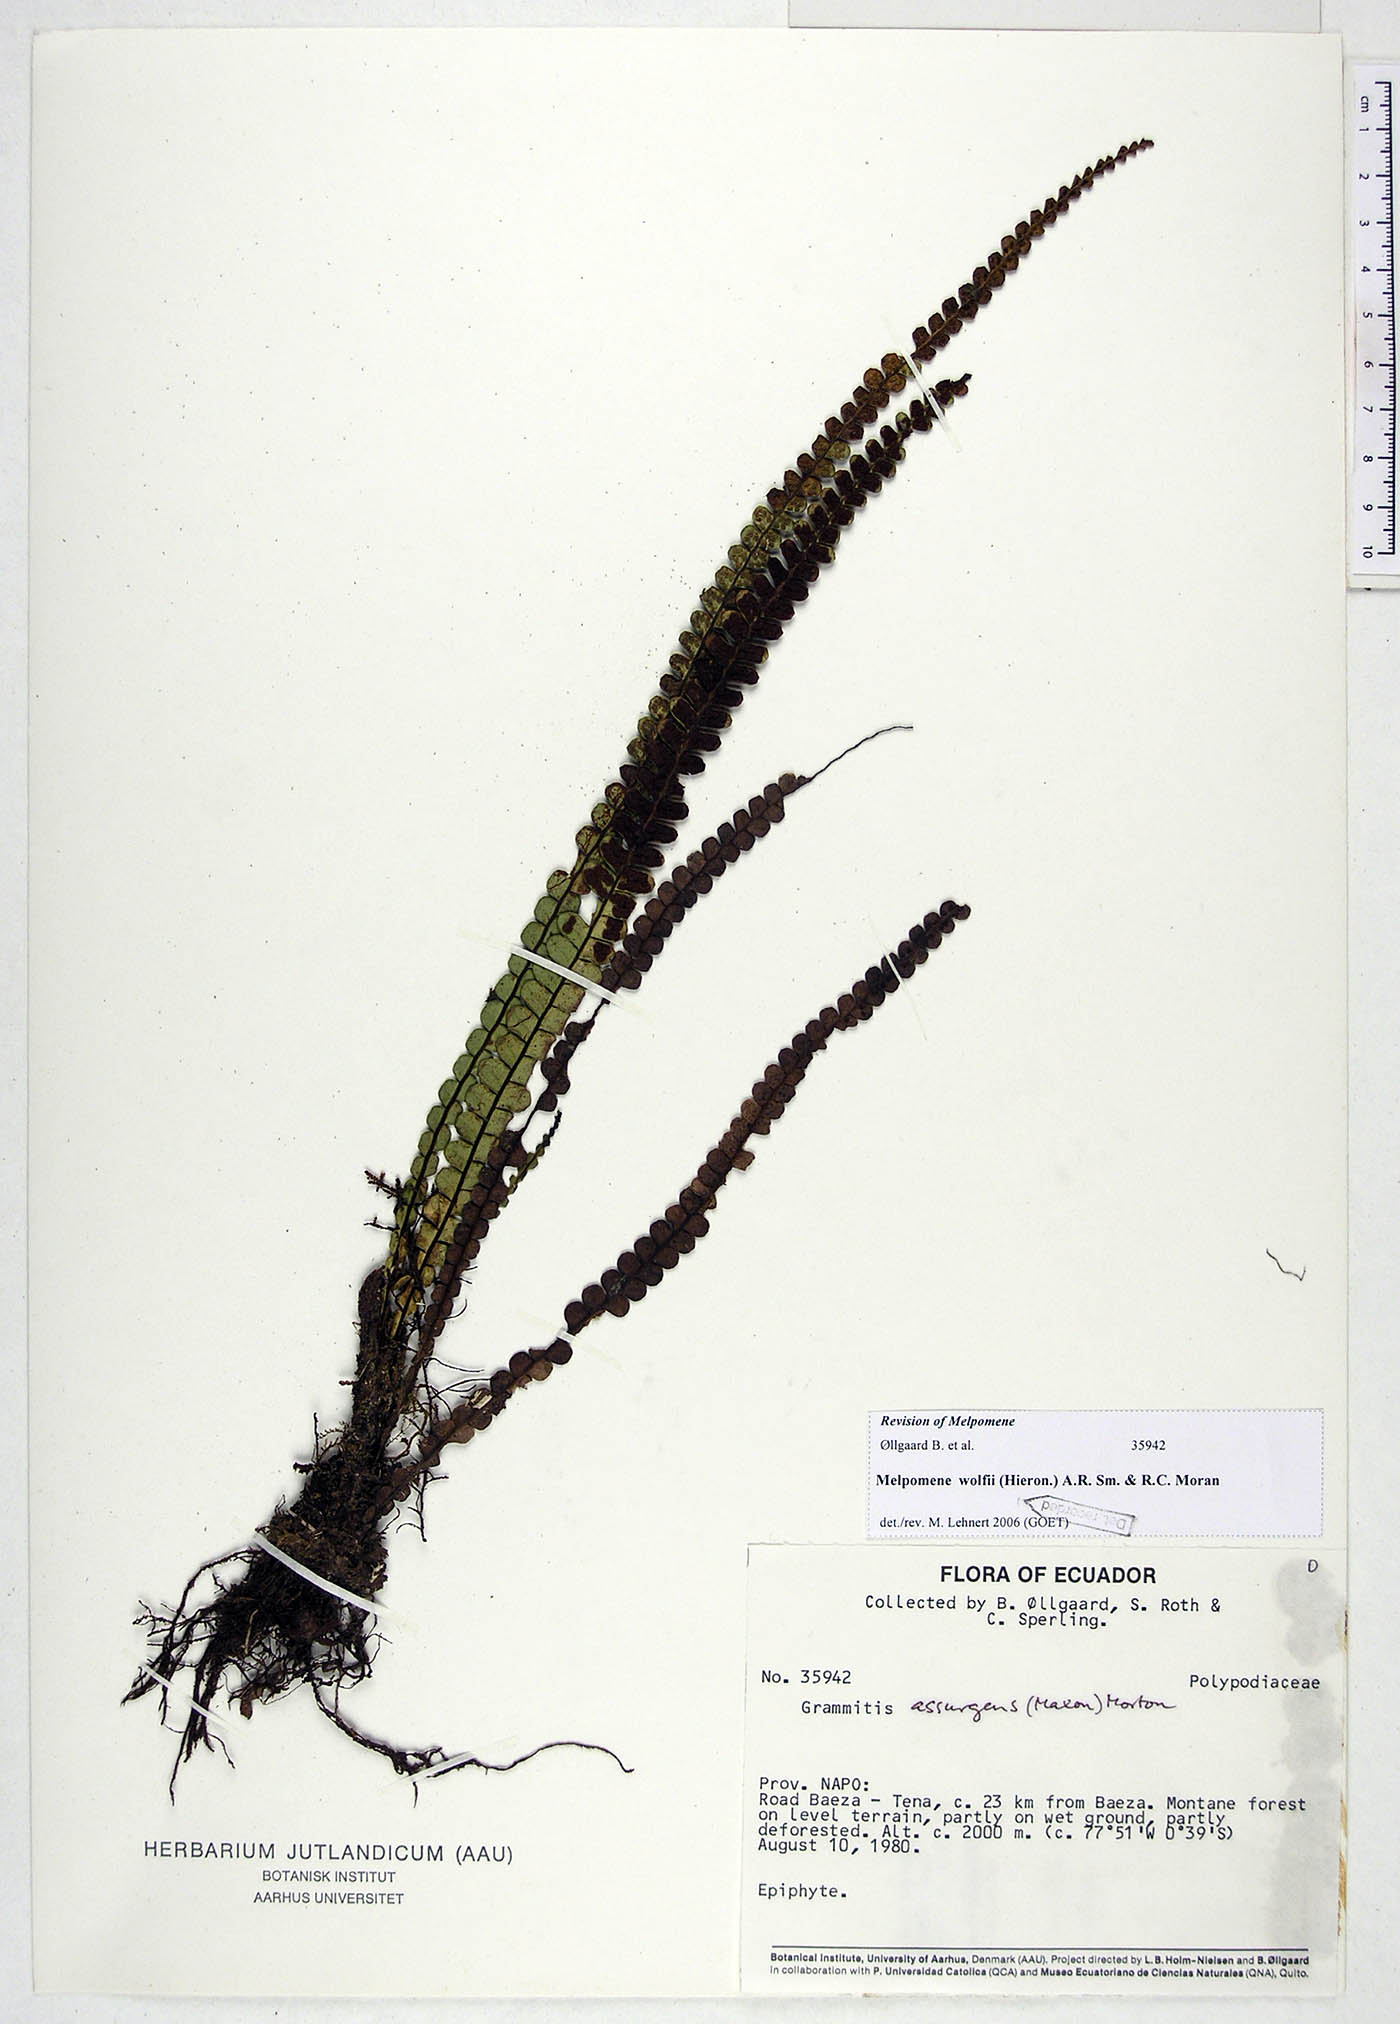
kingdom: Plantae
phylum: Tracheophyta
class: Polypodiopsida
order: Polypodiales
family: Polypodiaceae
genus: Melpomene
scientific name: Melpomene wolfii
